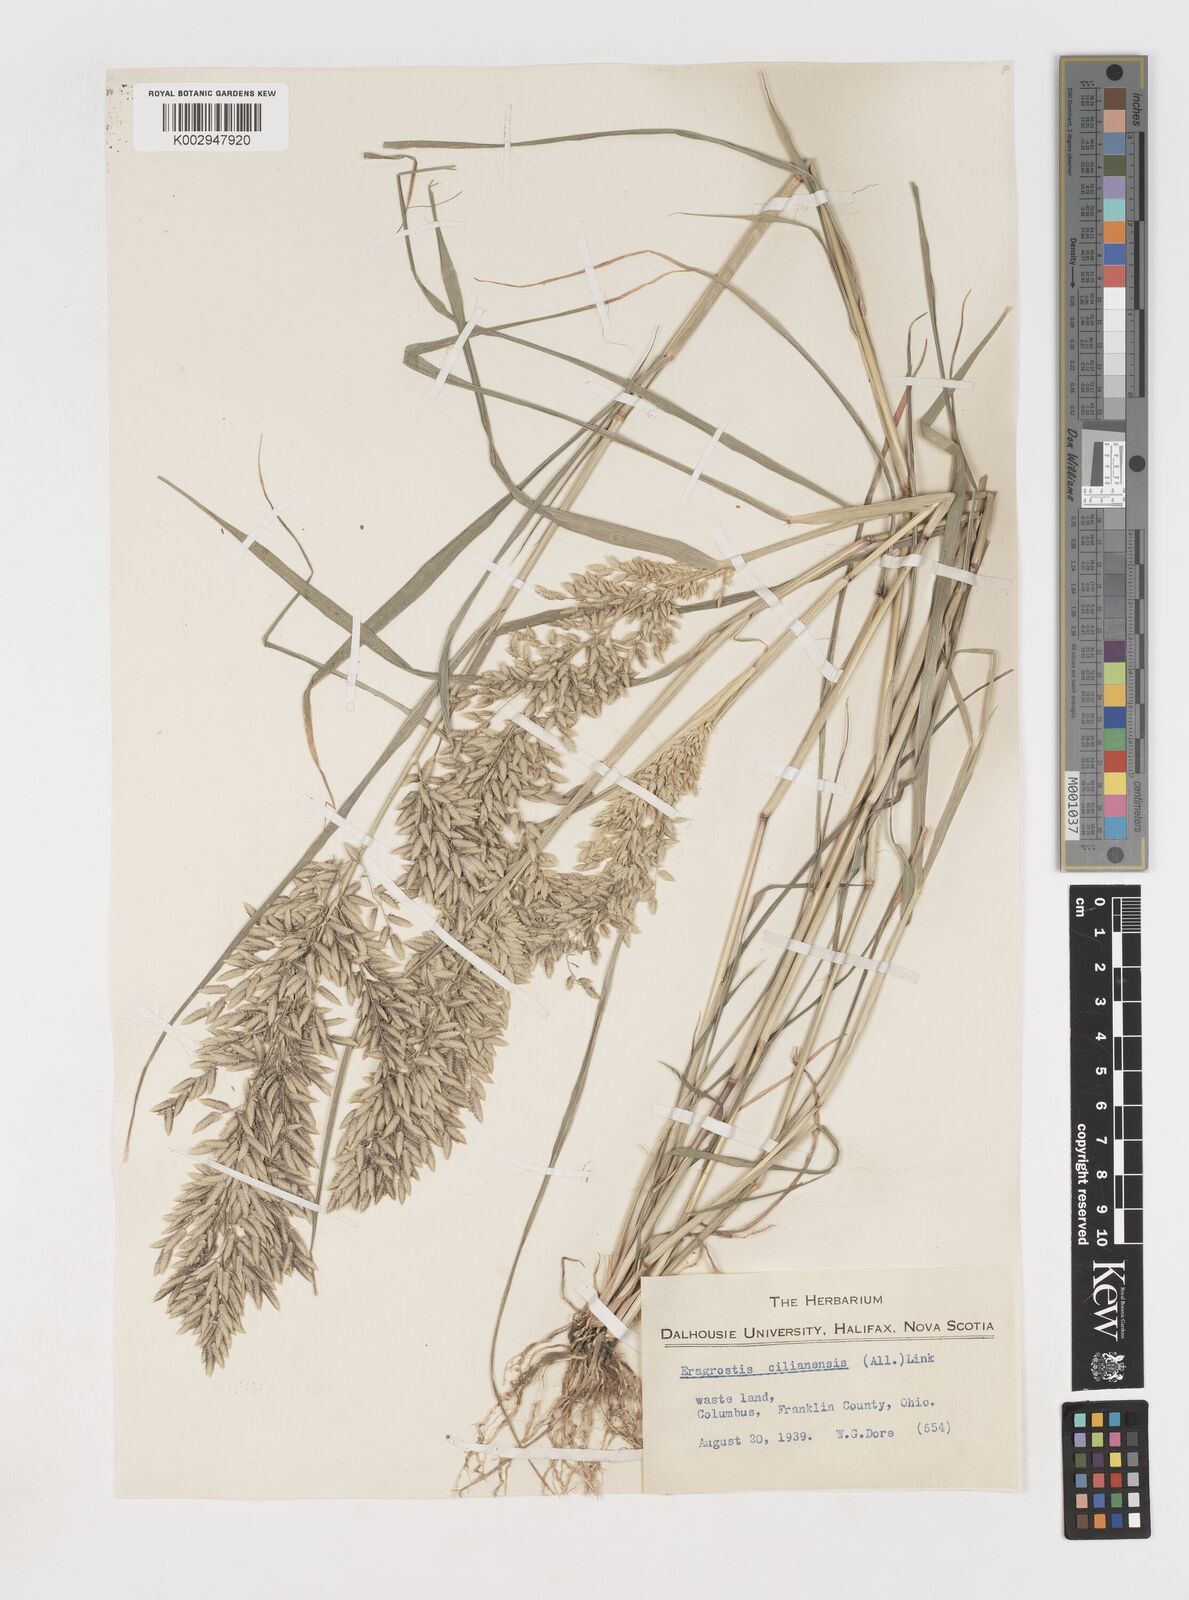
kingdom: Plantae
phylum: Tracheophyta
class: Liliopsida
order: Poales
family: Poaceae
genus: Eragrostis
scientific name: Eragrostis
